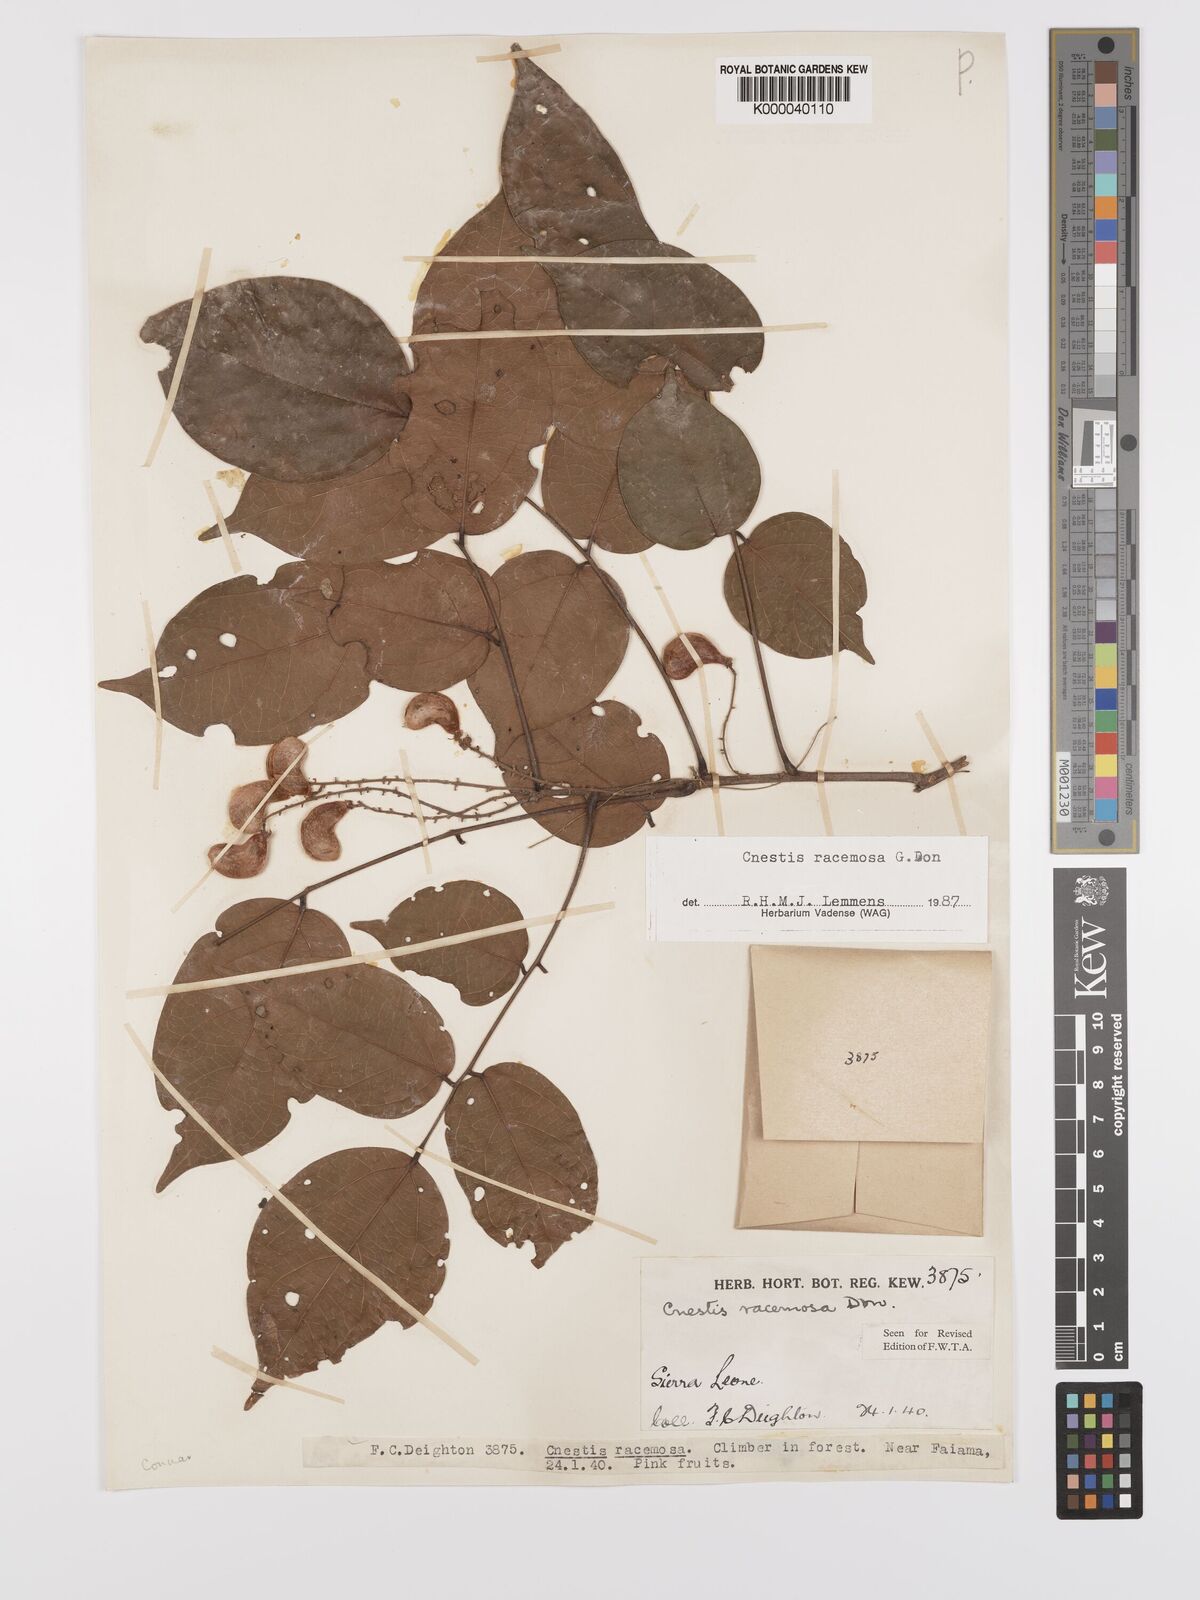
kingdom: Plantae
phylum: Tracheophyta
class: Magnoliopsida
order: Oxalidales
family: Connaraceae
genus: Cnestis
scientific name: Cnestis racemosa
